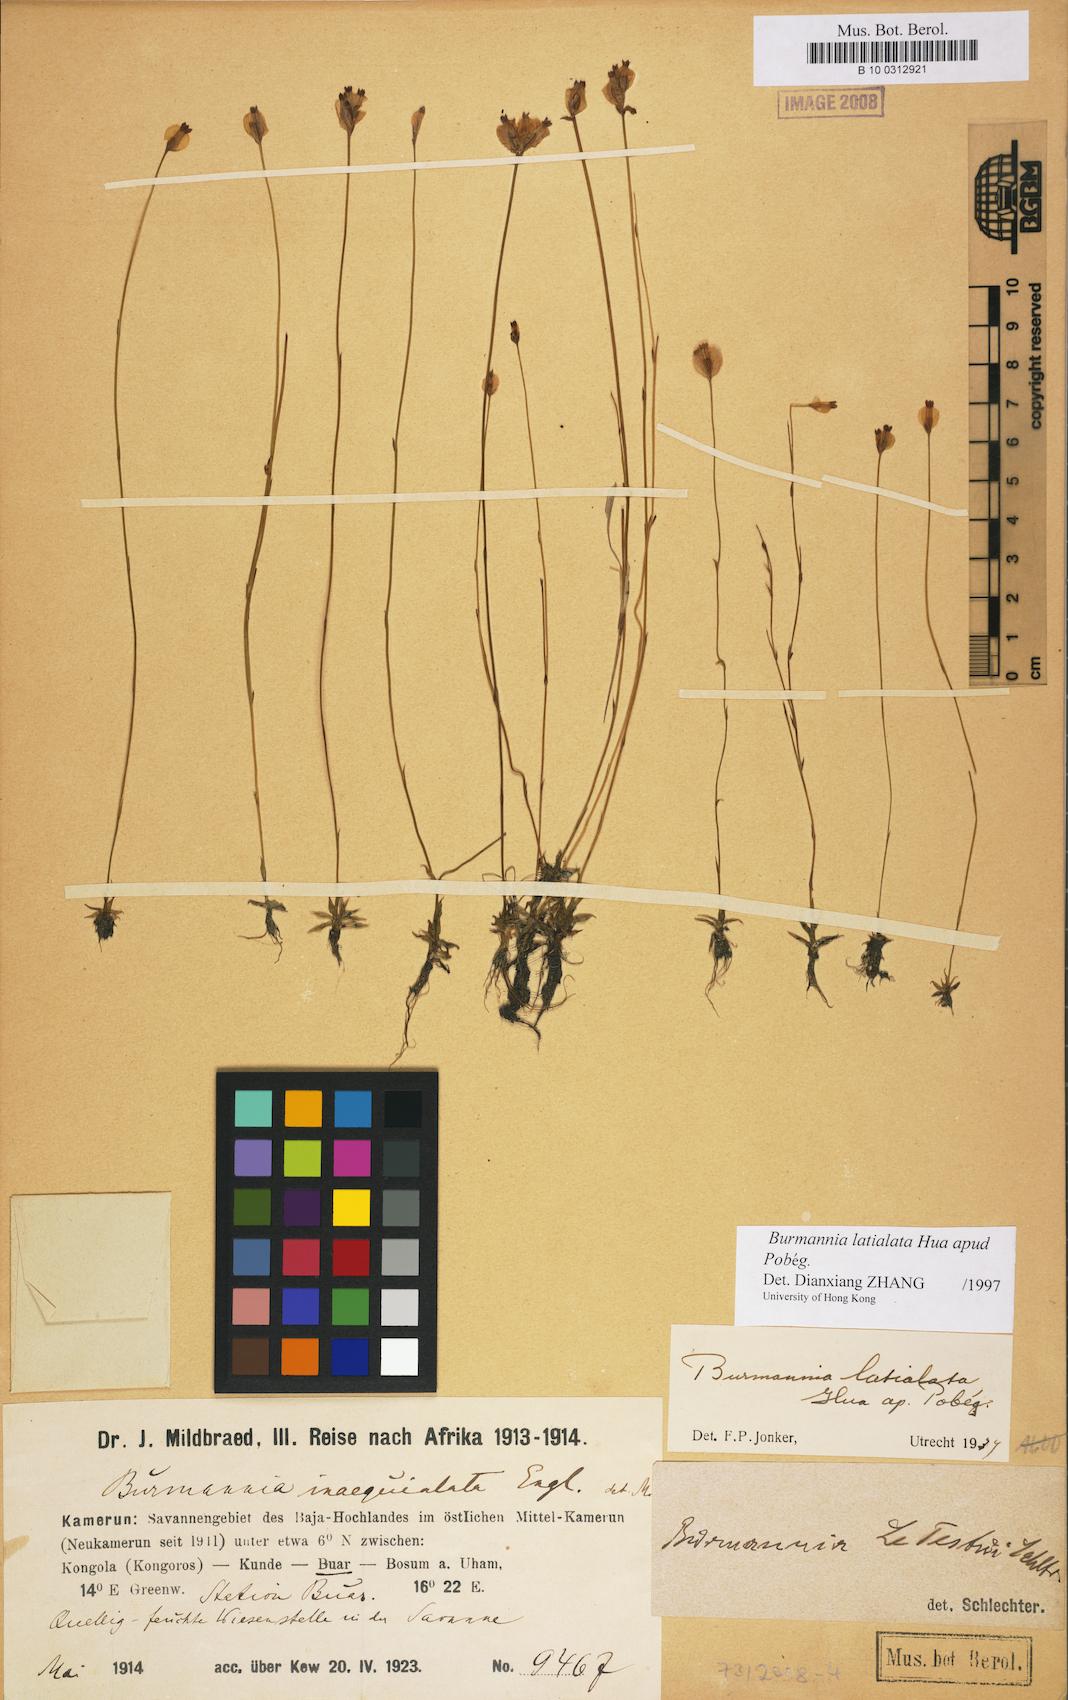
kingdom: Plantae
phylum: Tracheophyta
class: Liliopsida
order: Dioscoreales
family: Burmanniaceae
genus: Burmannia
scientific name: Burmannia latialata
